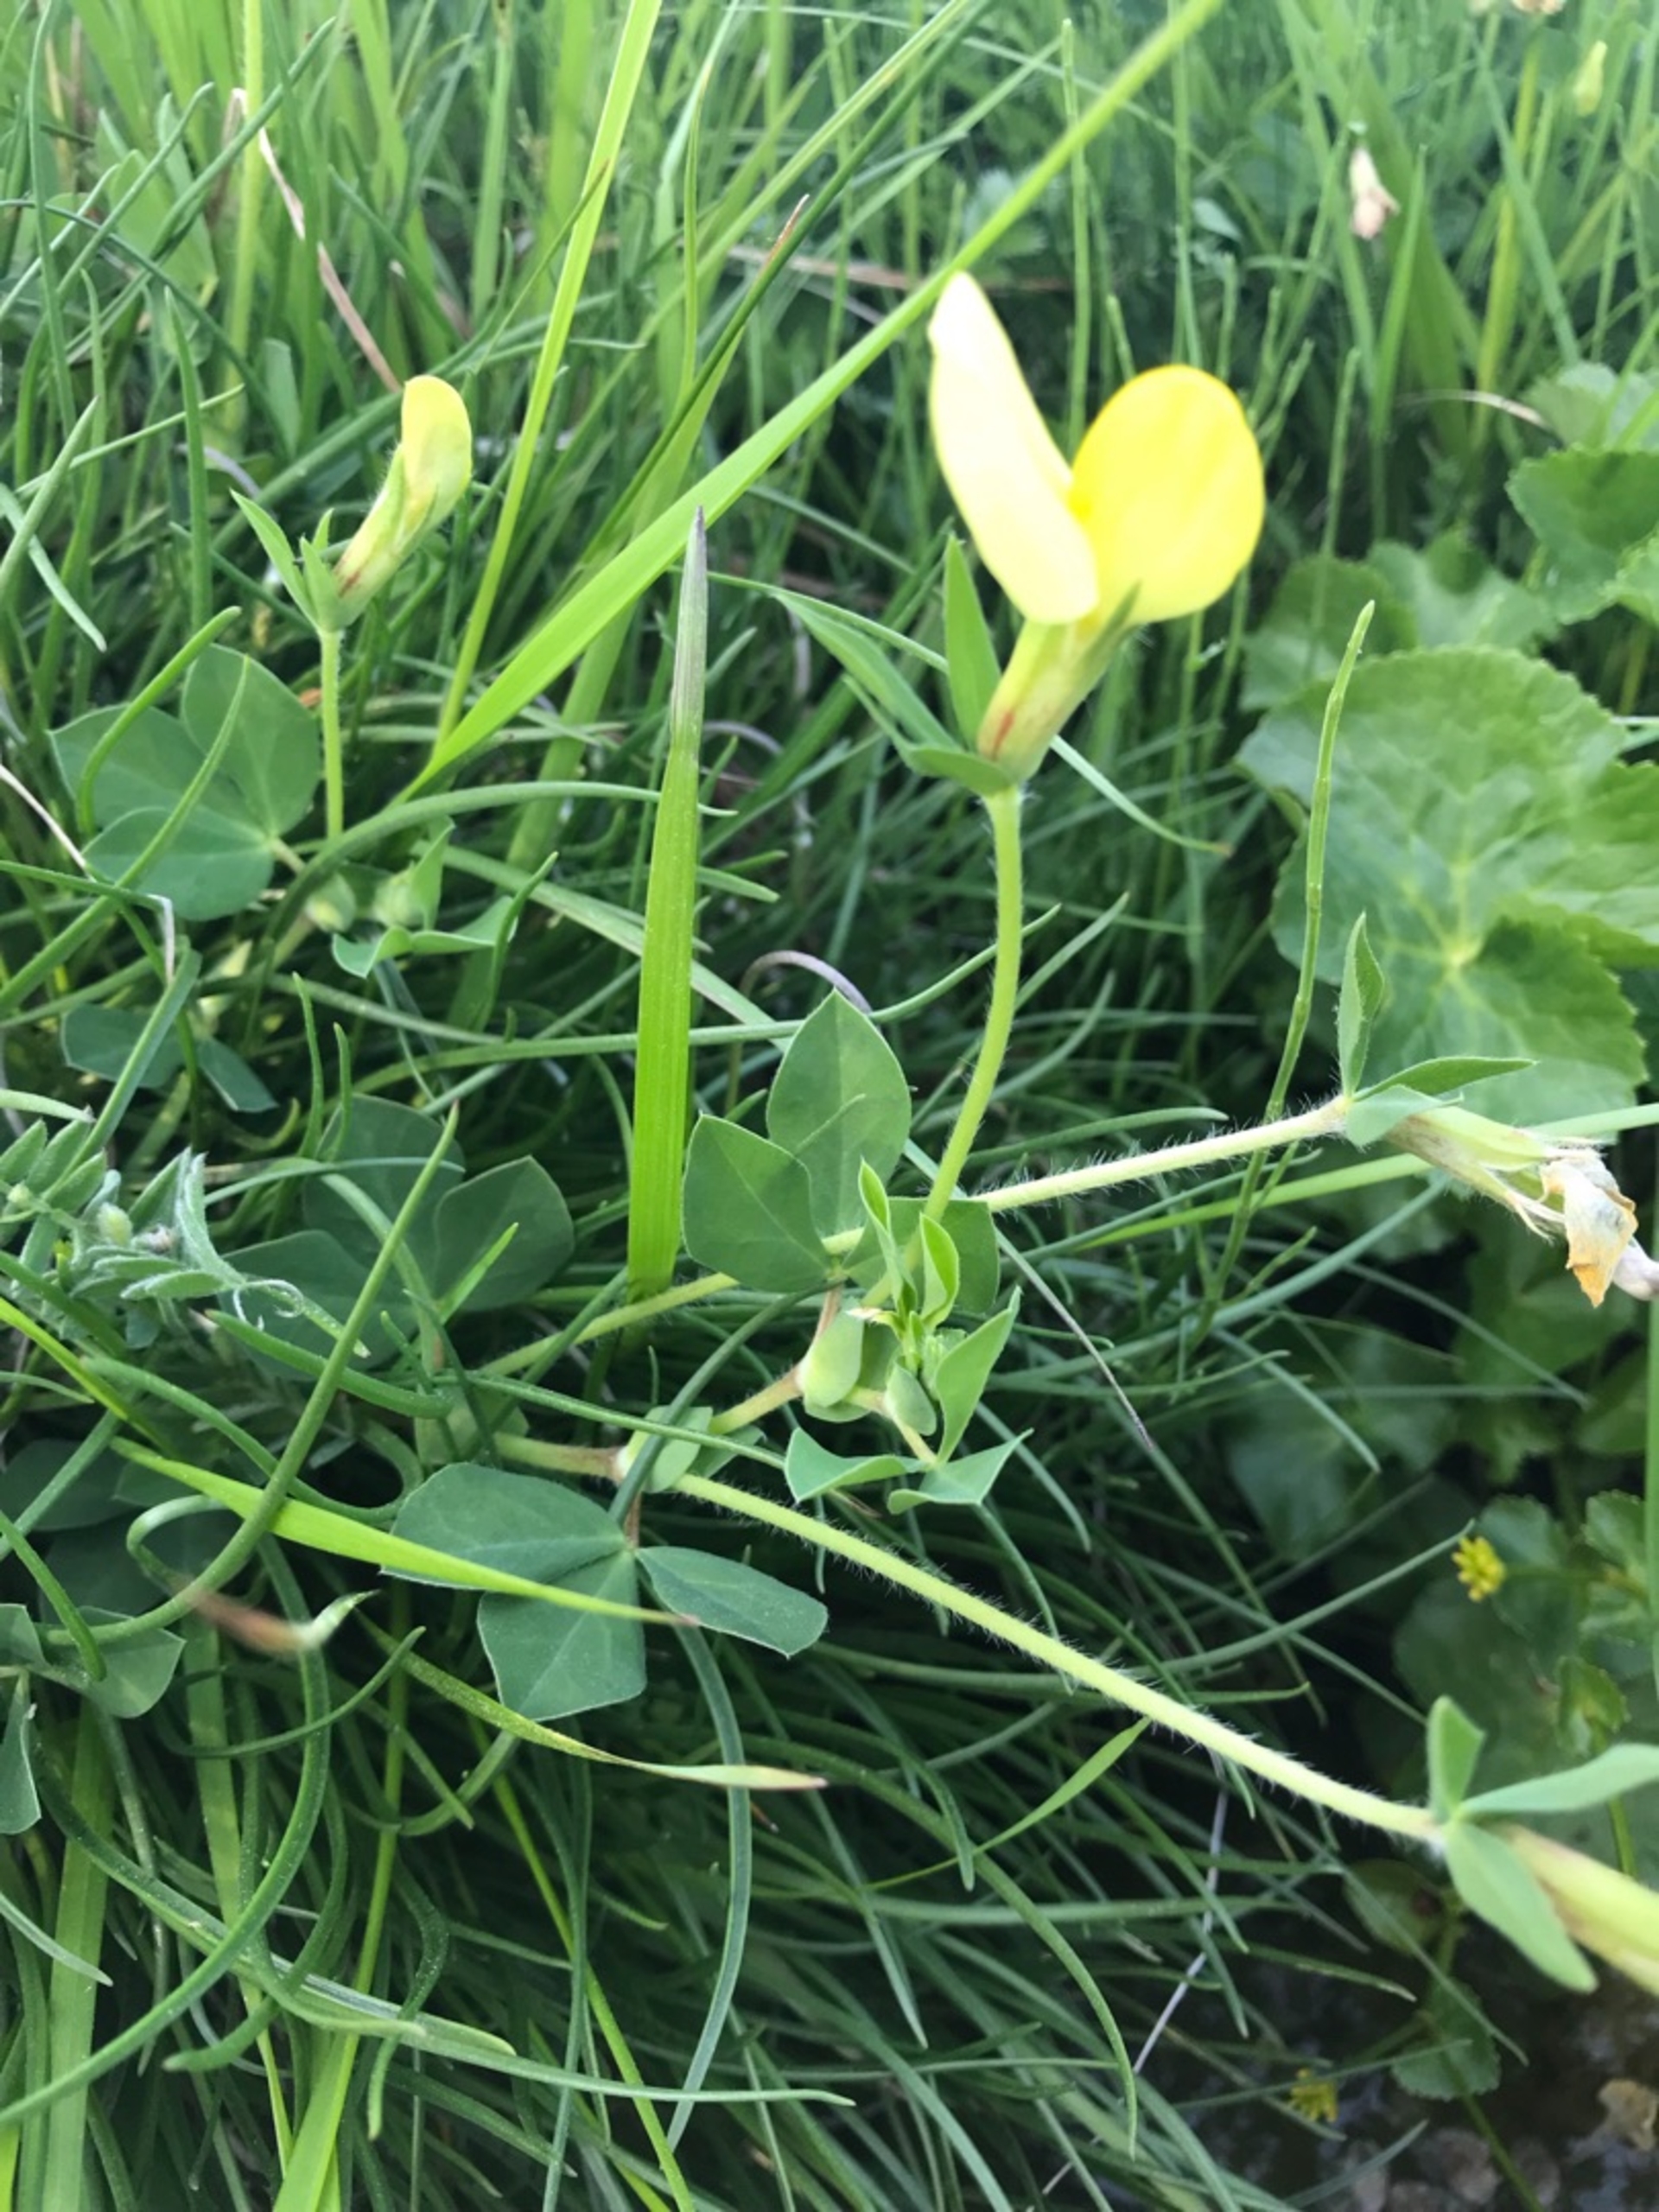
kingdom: Plantae
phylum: Tracheophyta
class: Magnoliopsida
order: Fabales
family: Fabaceae
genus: Lotus
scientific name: Lotus maritimus
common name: Kantbælg
